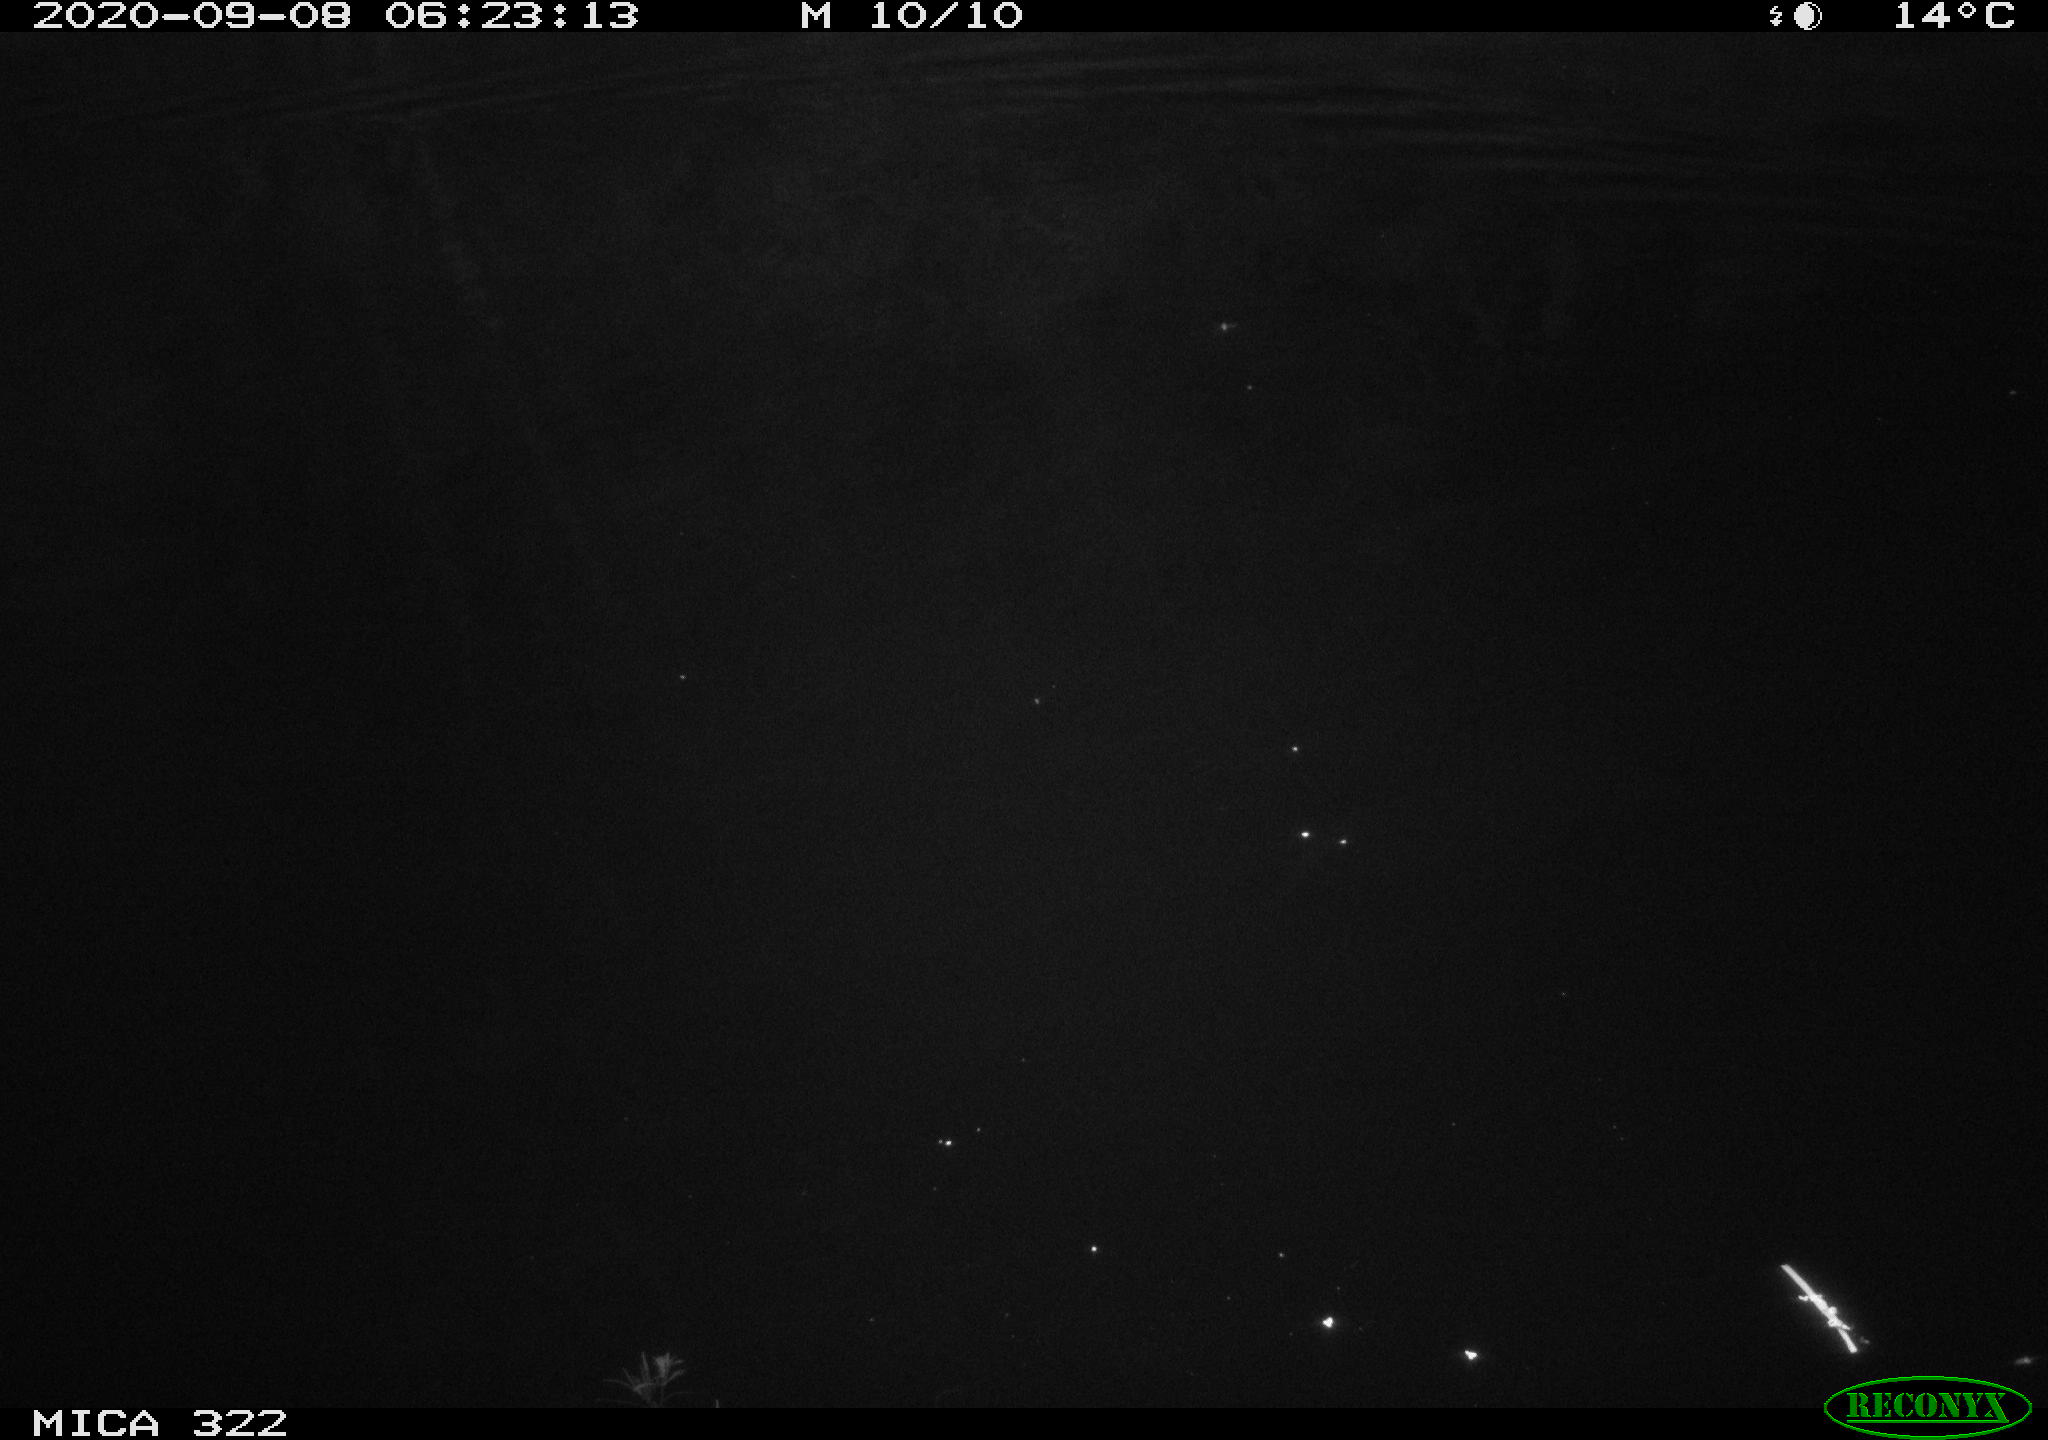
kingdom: Animalia
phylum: Chordata
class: Mammalia
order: Rodentia
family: Muridae
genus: Rattus
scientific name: Rattus norvegicus
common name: Brown rat
